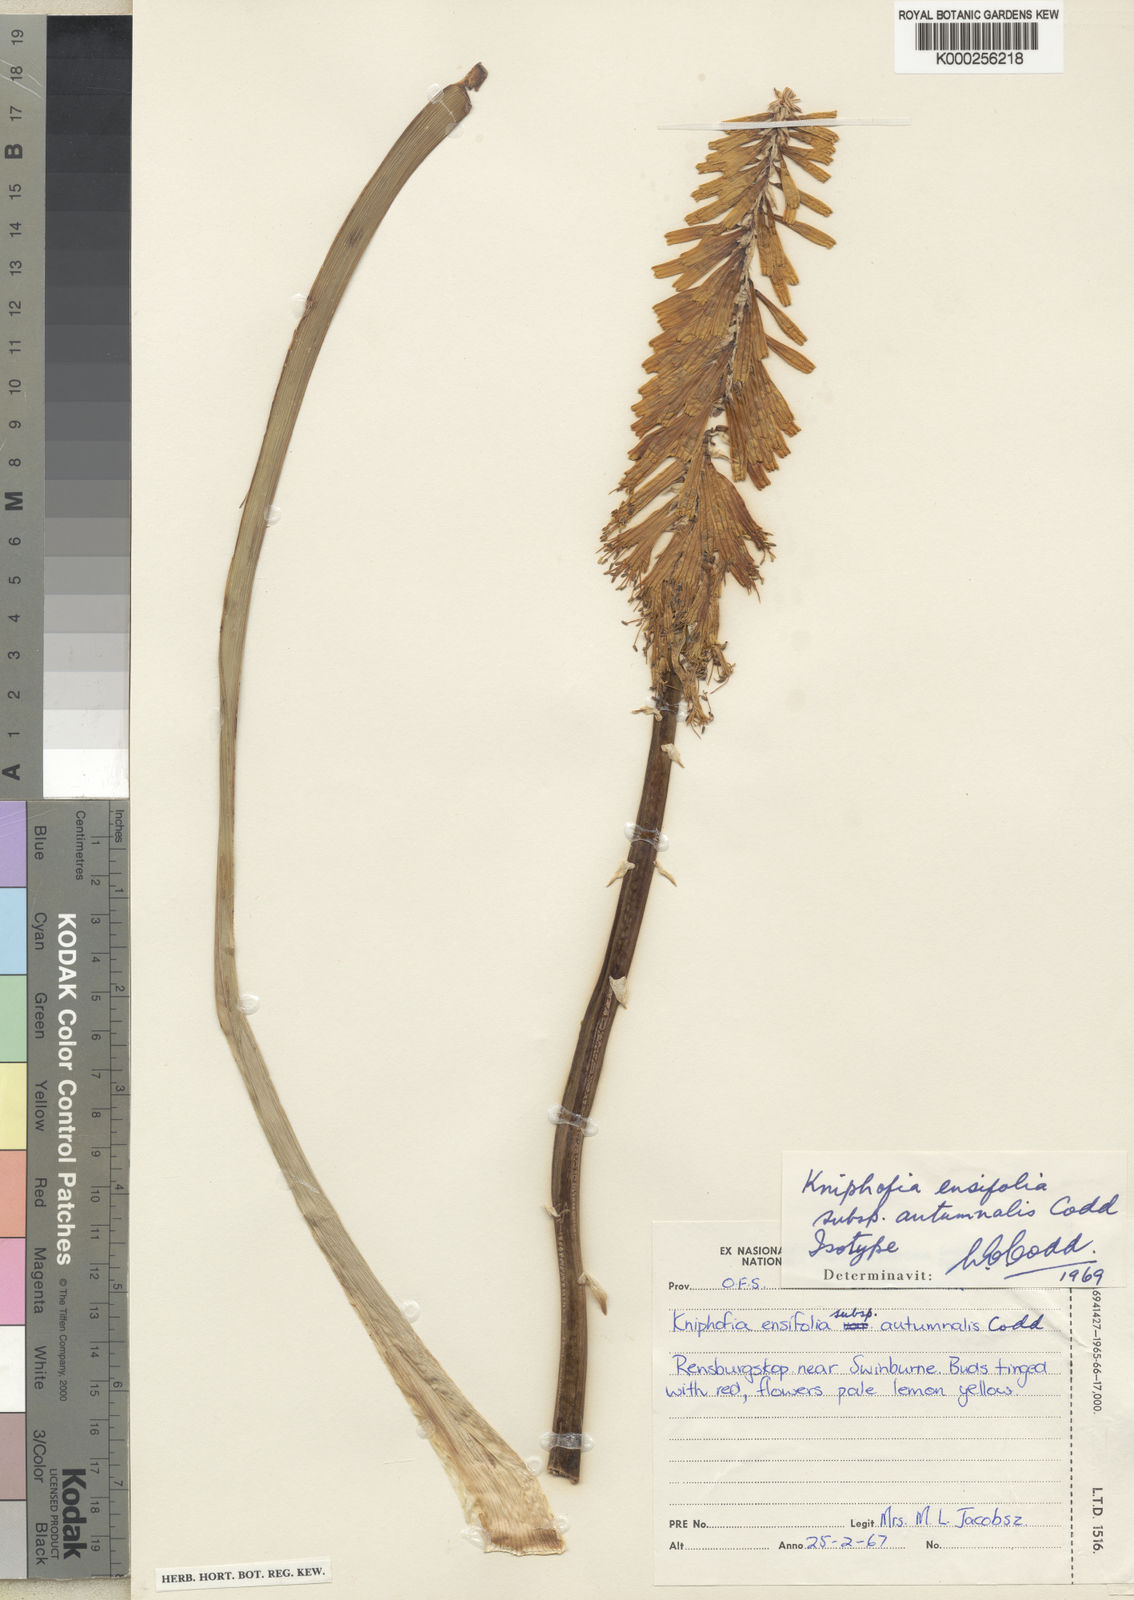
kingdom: Plantae
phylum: Tracheophyta
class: Liliopsida
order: Asparagales
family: Asphodelaceae
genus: Kniphofia
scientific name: Kniphofia ensifolia
